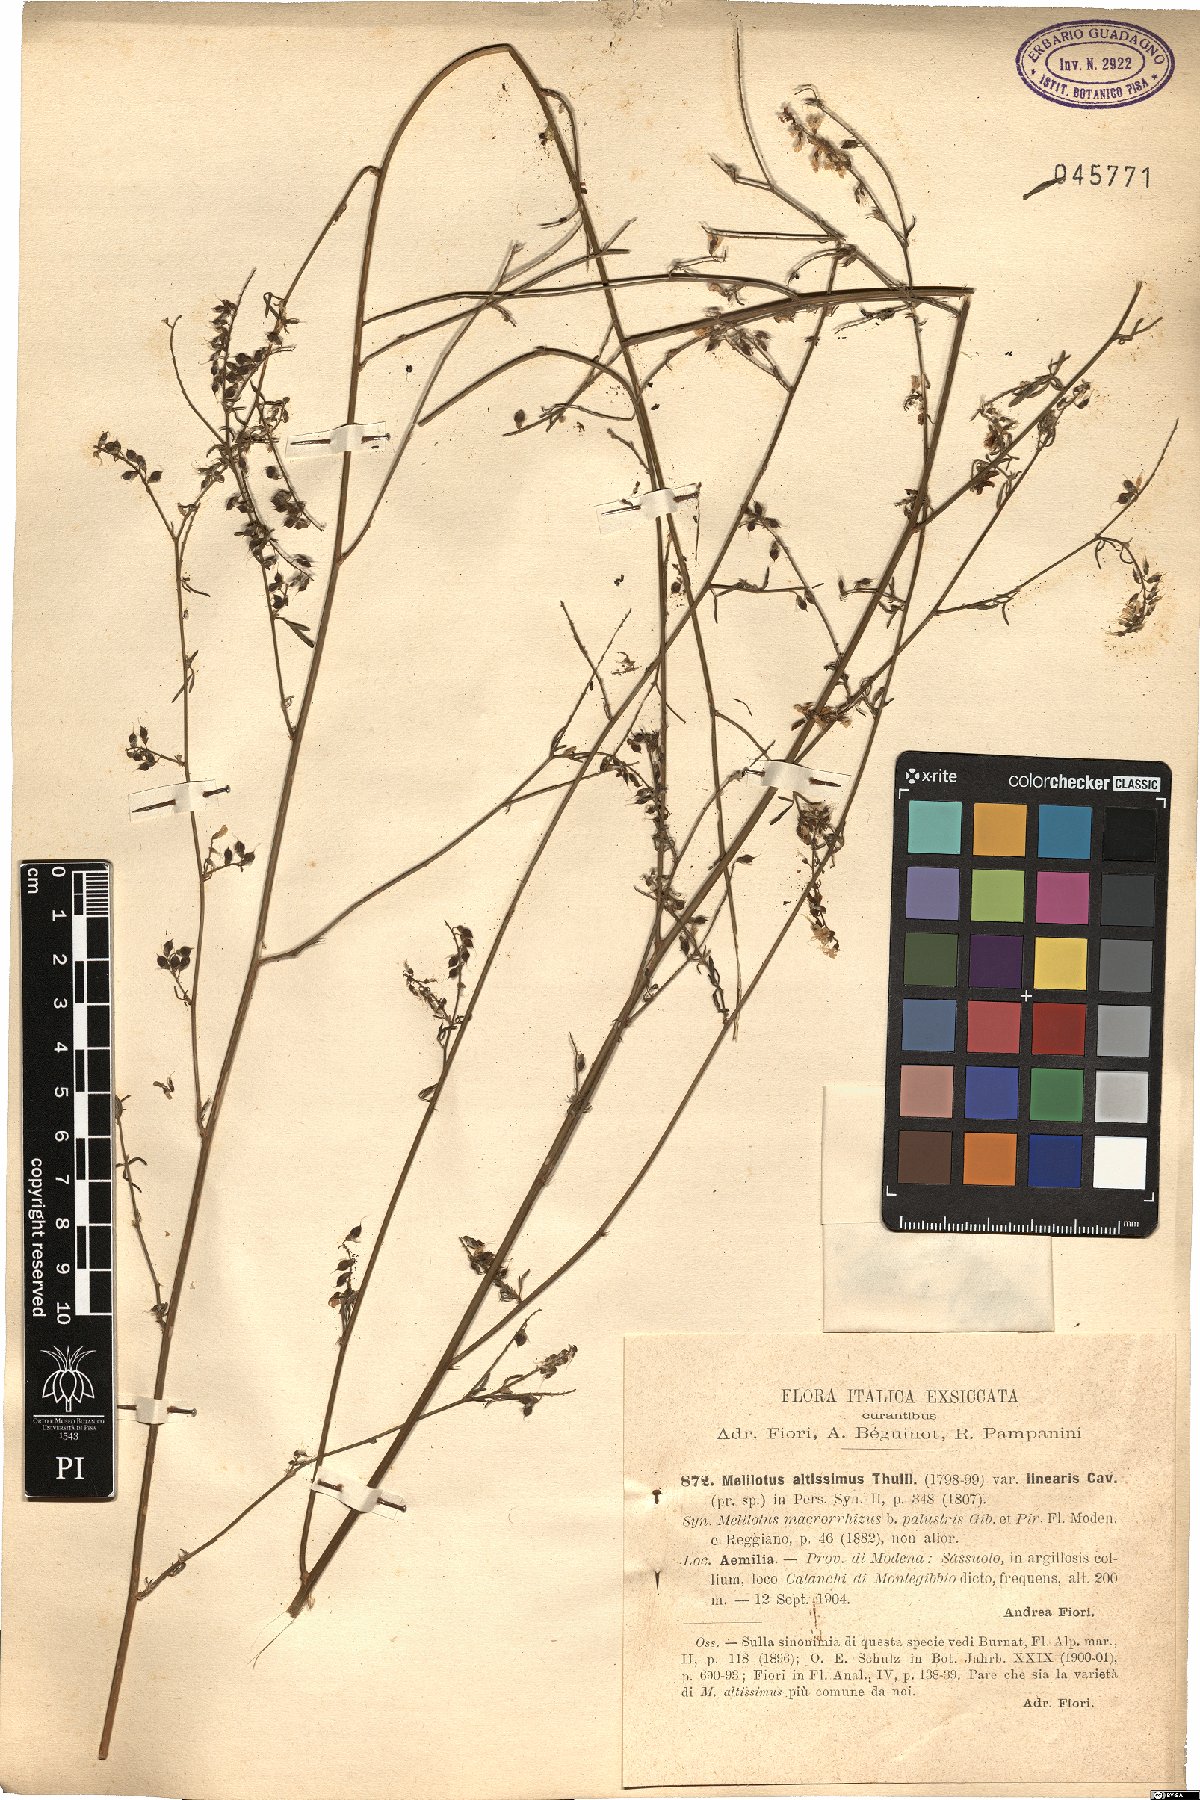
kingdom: Plantae
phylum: Tracheophyta
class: Magnoliopsida
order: Fabales
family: Fabaceae
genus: Melilotus
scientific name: Melilotus altissimus
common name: Tall melilot
